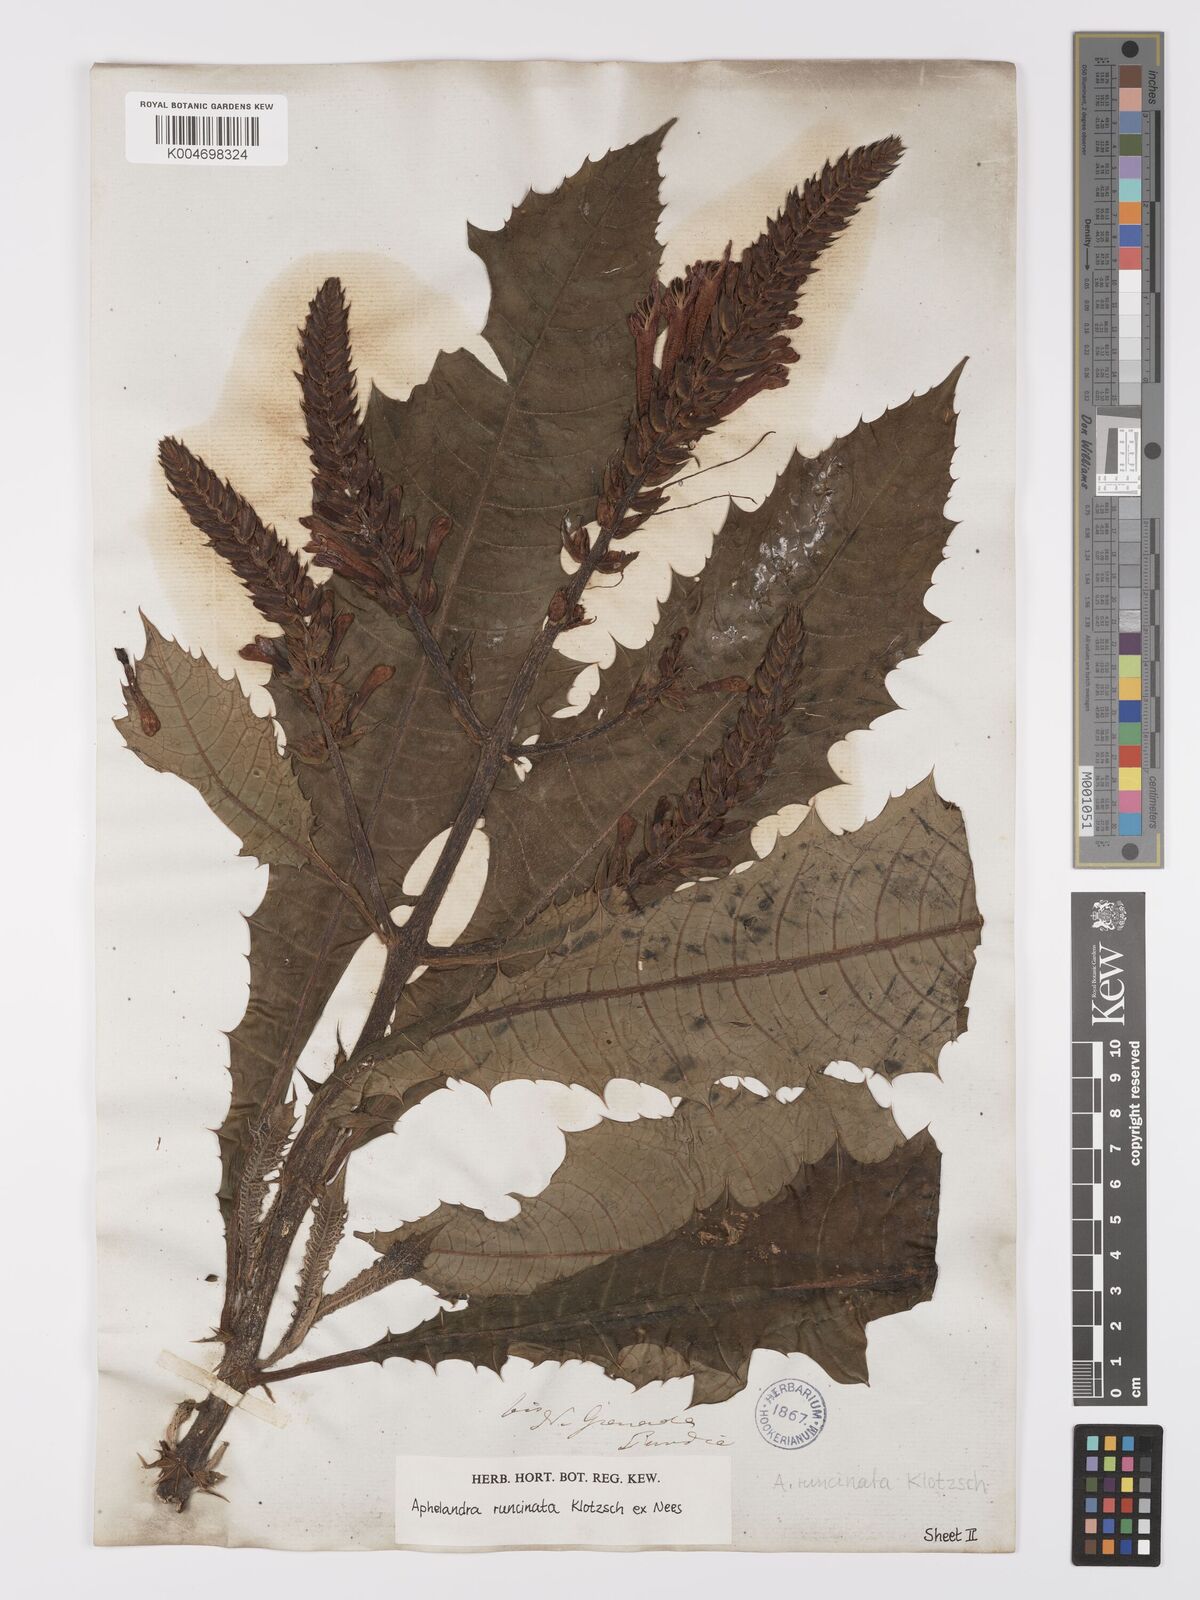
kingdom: Plantae
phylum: Tracheophyta
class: Magnoliopsida
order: Lamiales
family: Acanthaceae
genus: Aphelandra
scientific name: Aphelandra runcinata
